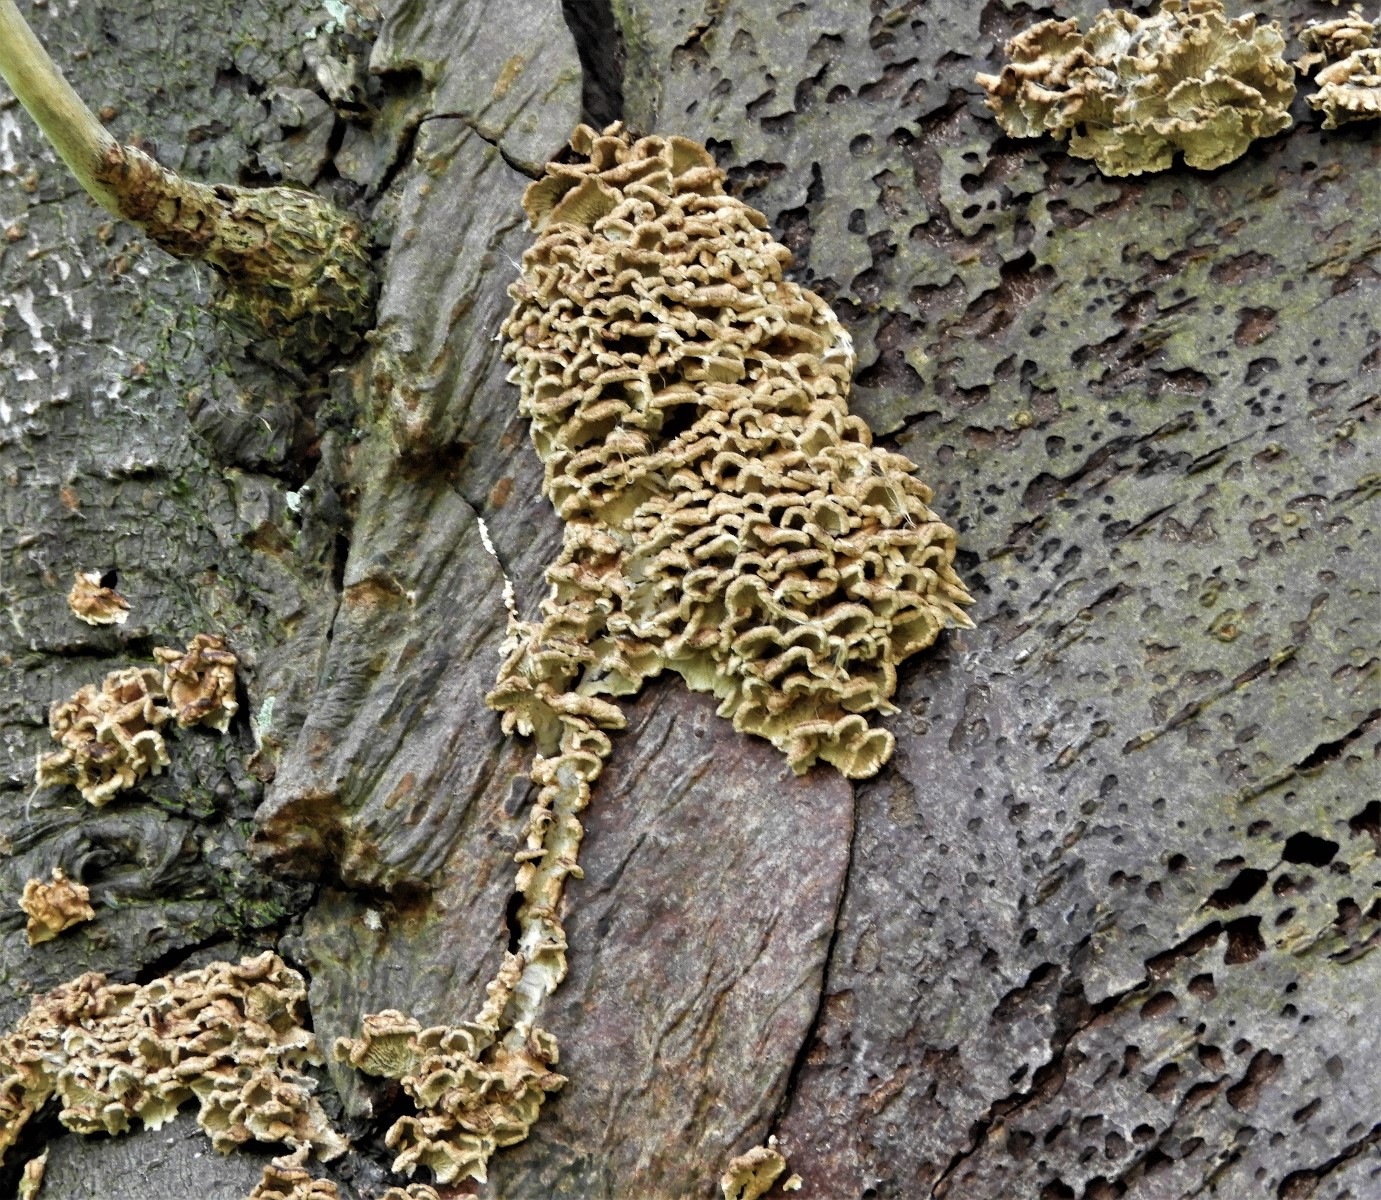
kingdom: Fungi
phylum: Basidiomycota
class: Agaricomycetes
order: Amylocorticiales
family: Amylocorticiaceae
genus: Plicaturopsis
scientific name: Plicaturopsis crispa
